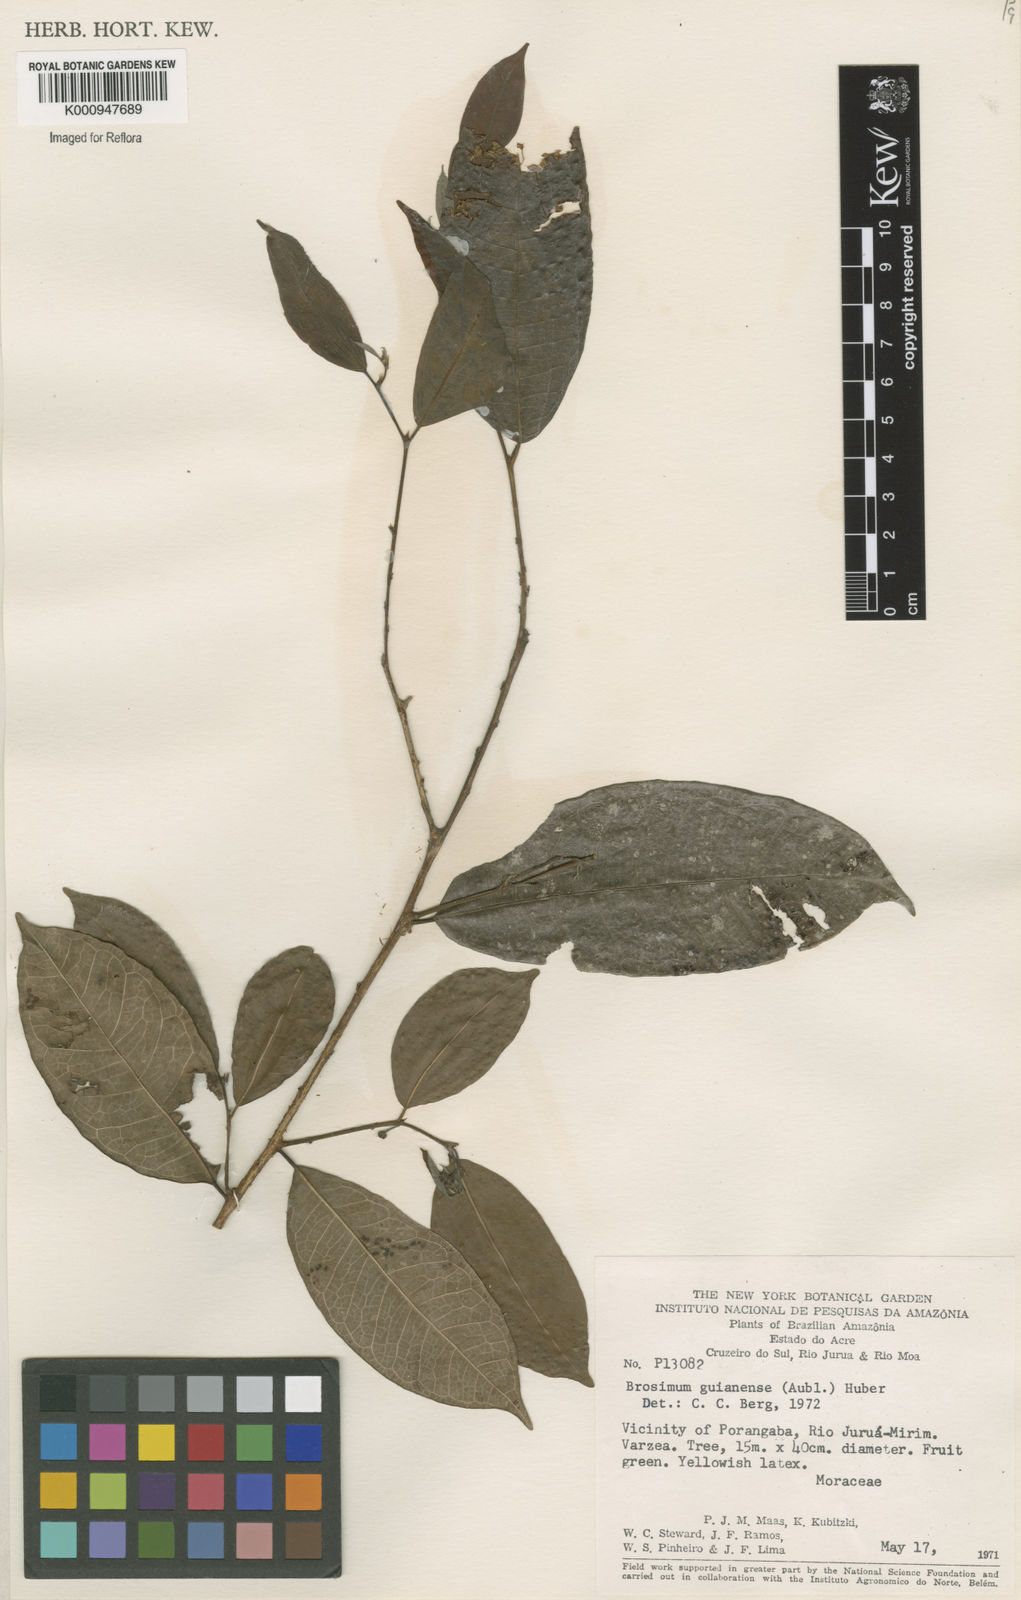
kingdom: Plantae
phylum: Tracheophyta
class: Magnoliopsida
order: Rosales
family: Moraceae
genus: Brosimum
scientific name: Brosimum
